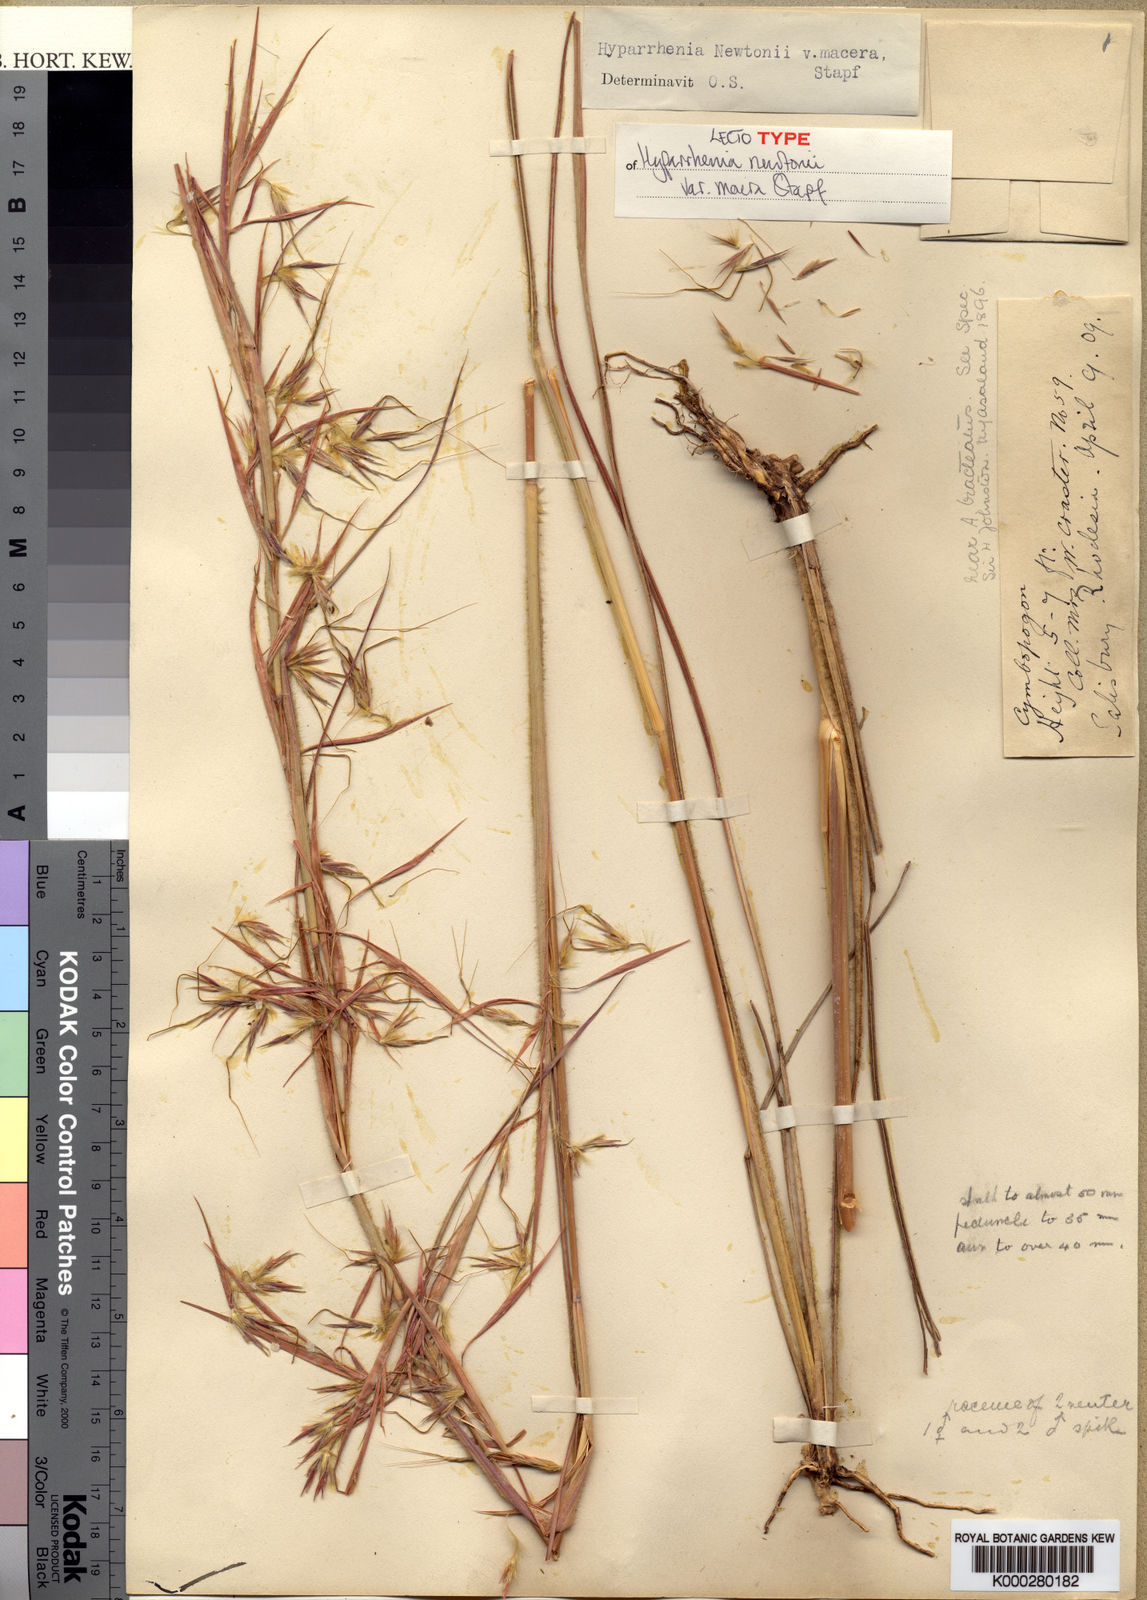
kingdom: Plantae
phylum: Tracheophyta
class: Liliopsida
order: Poales
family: Poaceae
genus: Hyparrhenia
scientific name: Hyparrhenia newtonii
